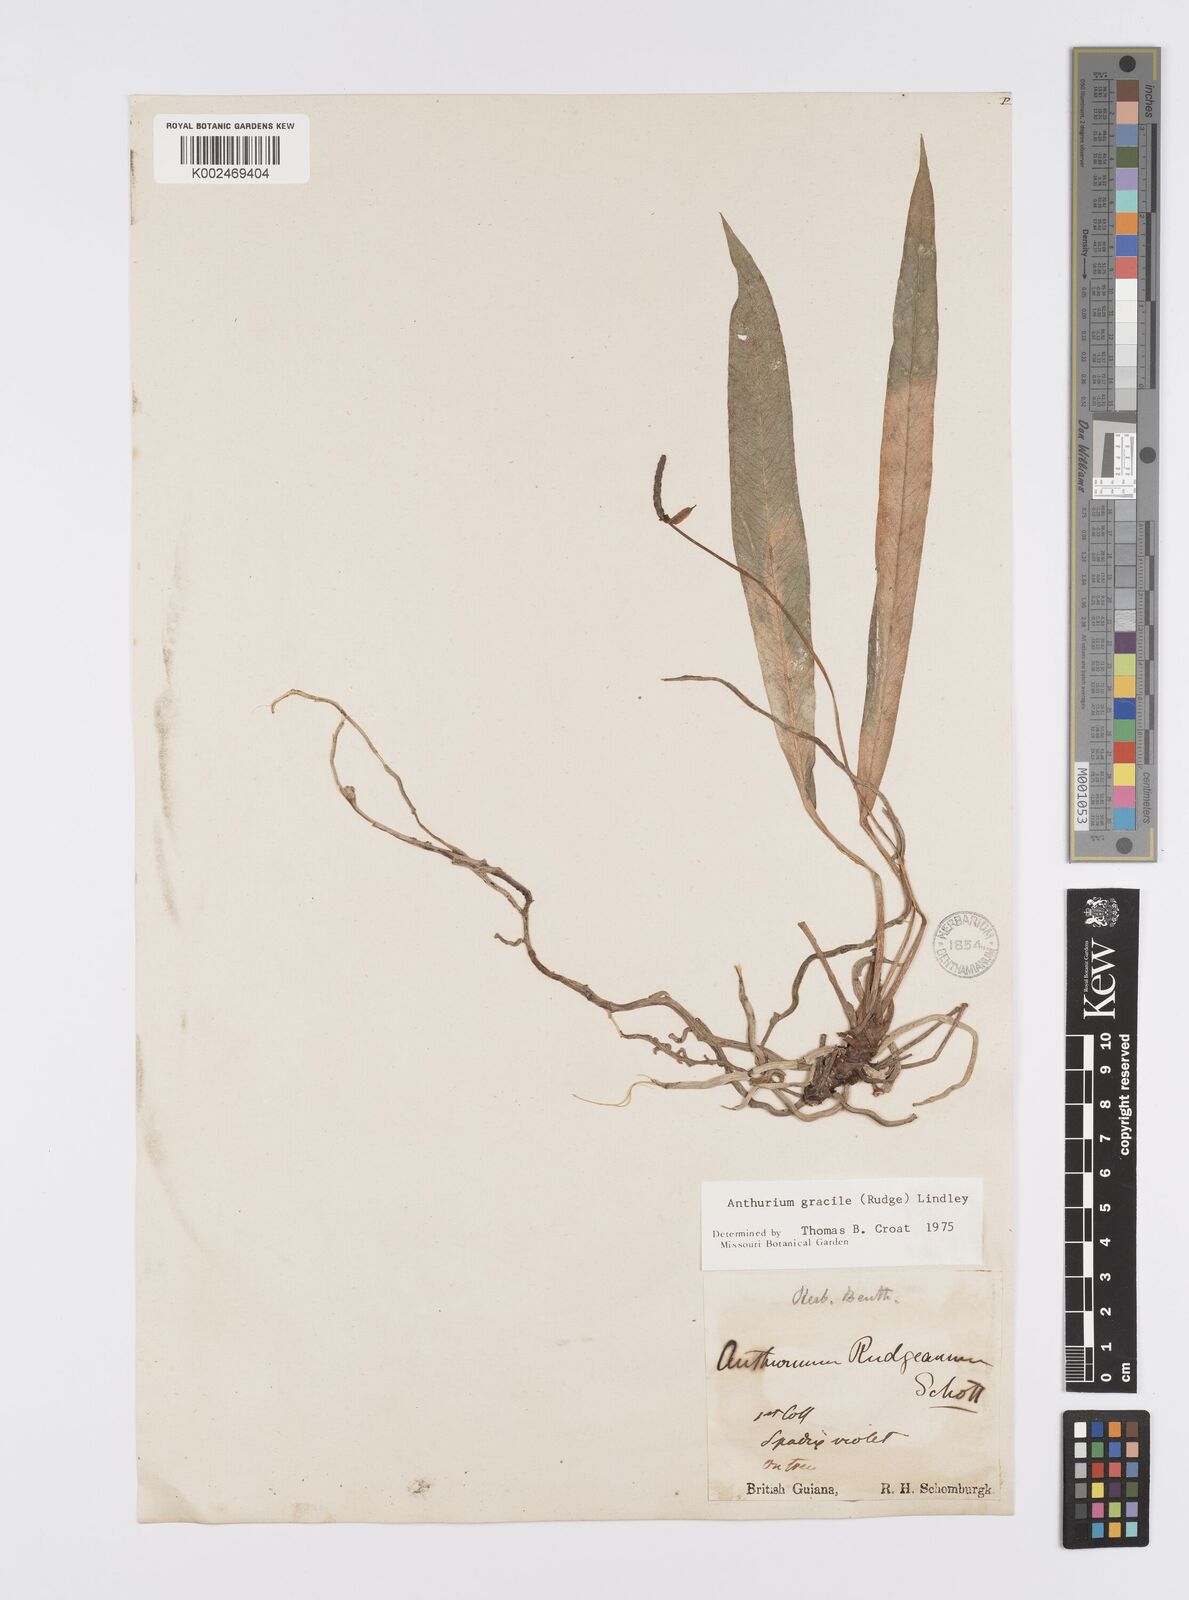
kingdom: Plantae
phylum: Tracheophyta
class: Liliopsida
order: Alismatales
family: Araceae
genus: Anthurium
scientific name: Anthurium gracile
